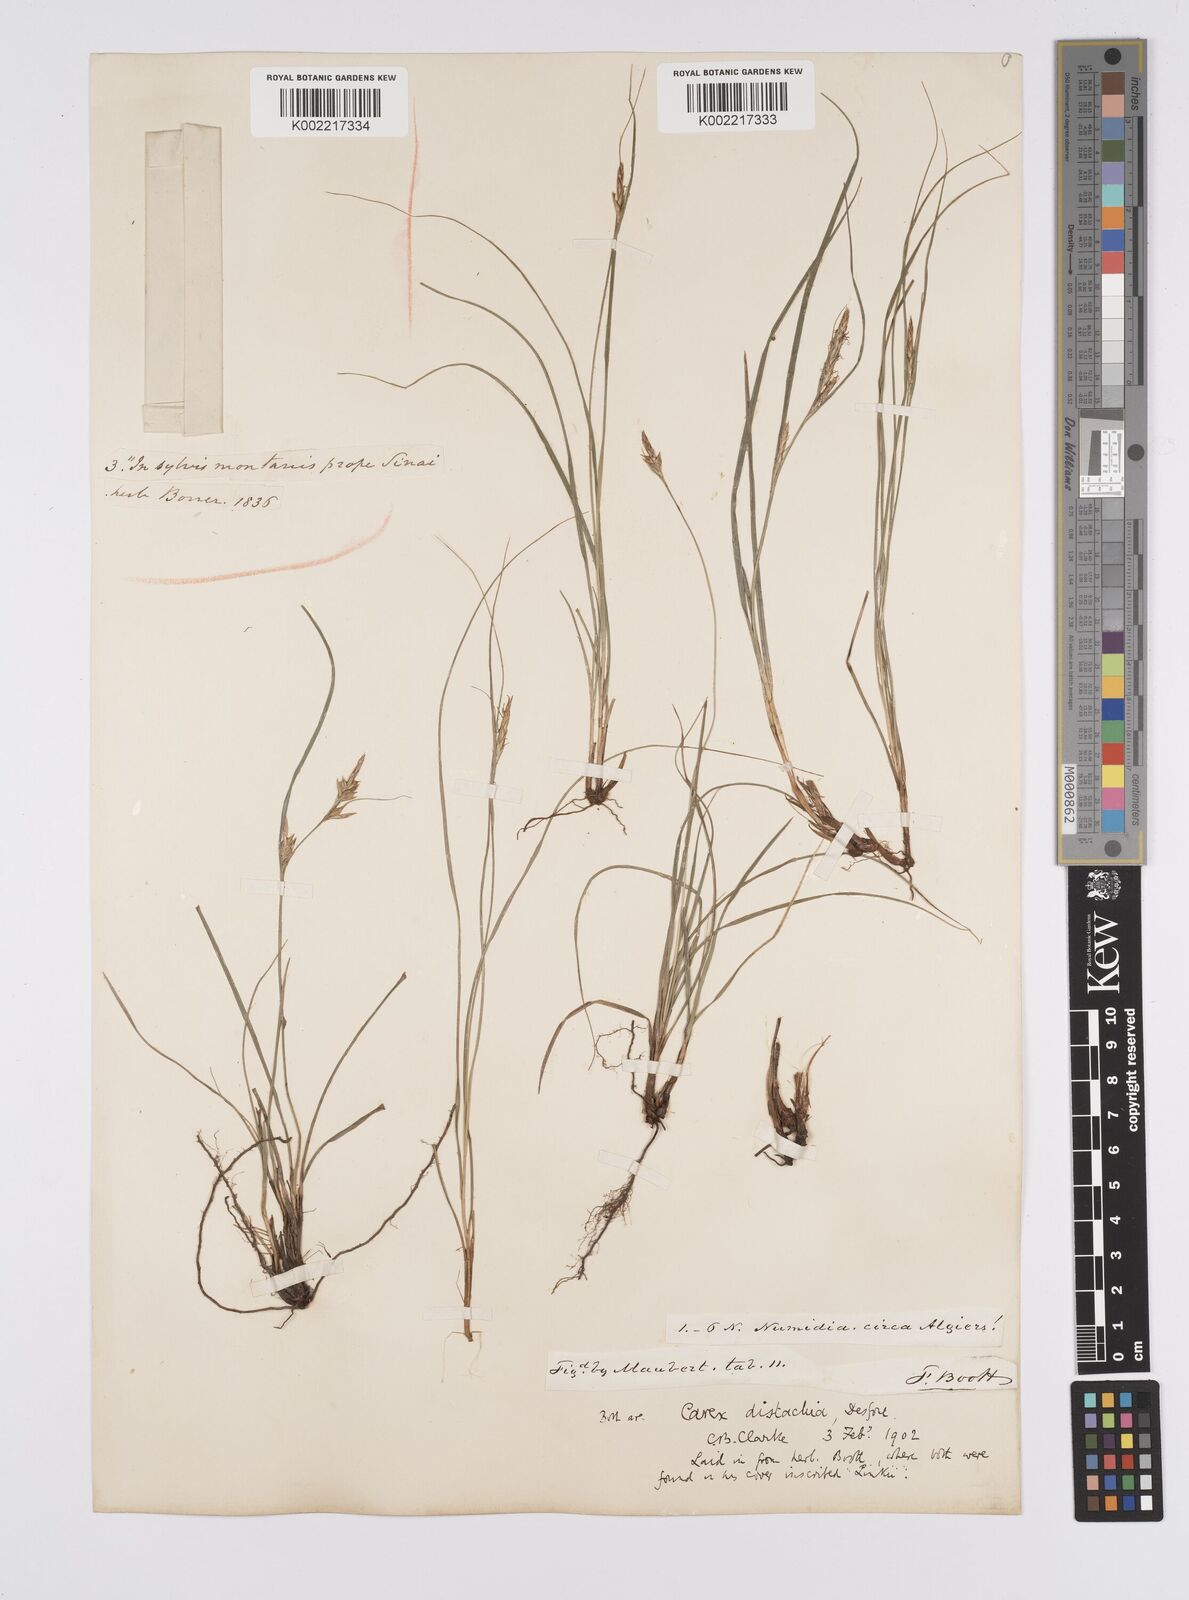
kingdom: Plantae
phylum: Tracheophyta
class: Liliopsida
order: Poales
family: Cyperaceae
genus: Carex
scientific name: Carex distachya
